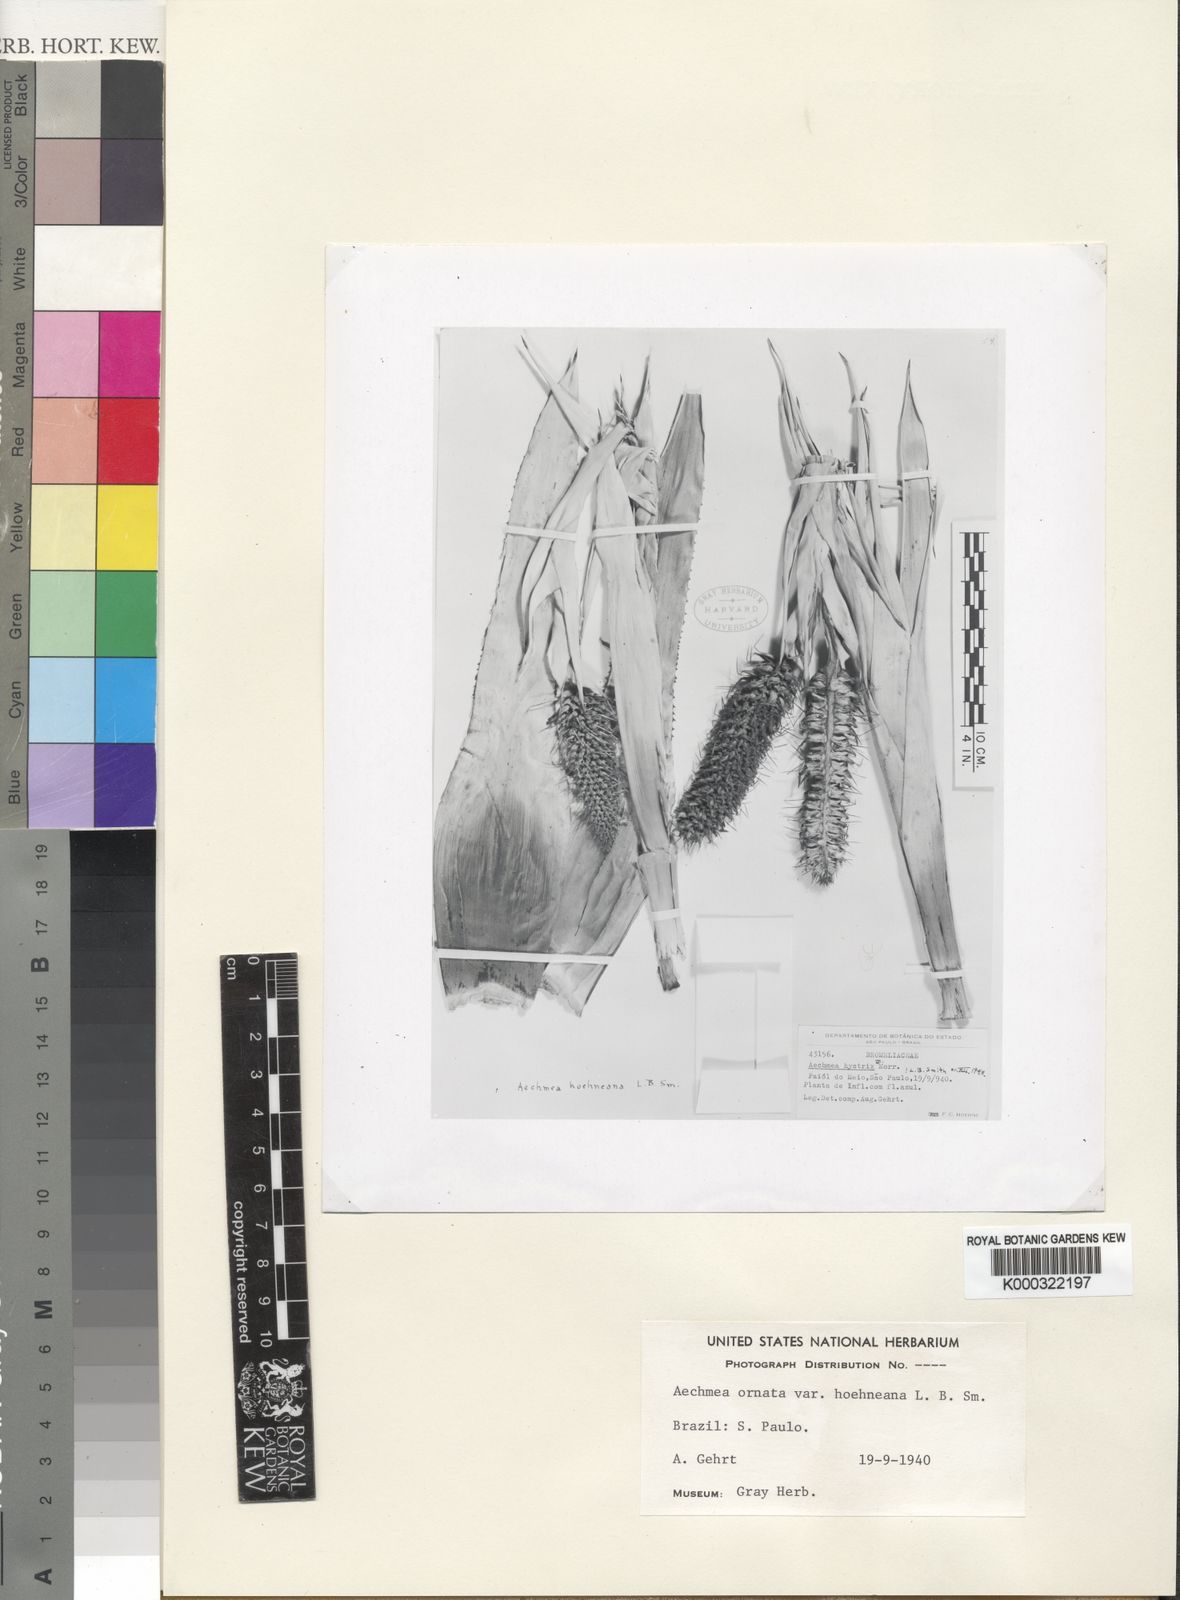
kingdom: Plantae
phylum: Tracheophyta
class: Liliopsida
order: Poales
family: Bromeliaceae
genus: Aechmea
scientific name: Aechmea ornata
